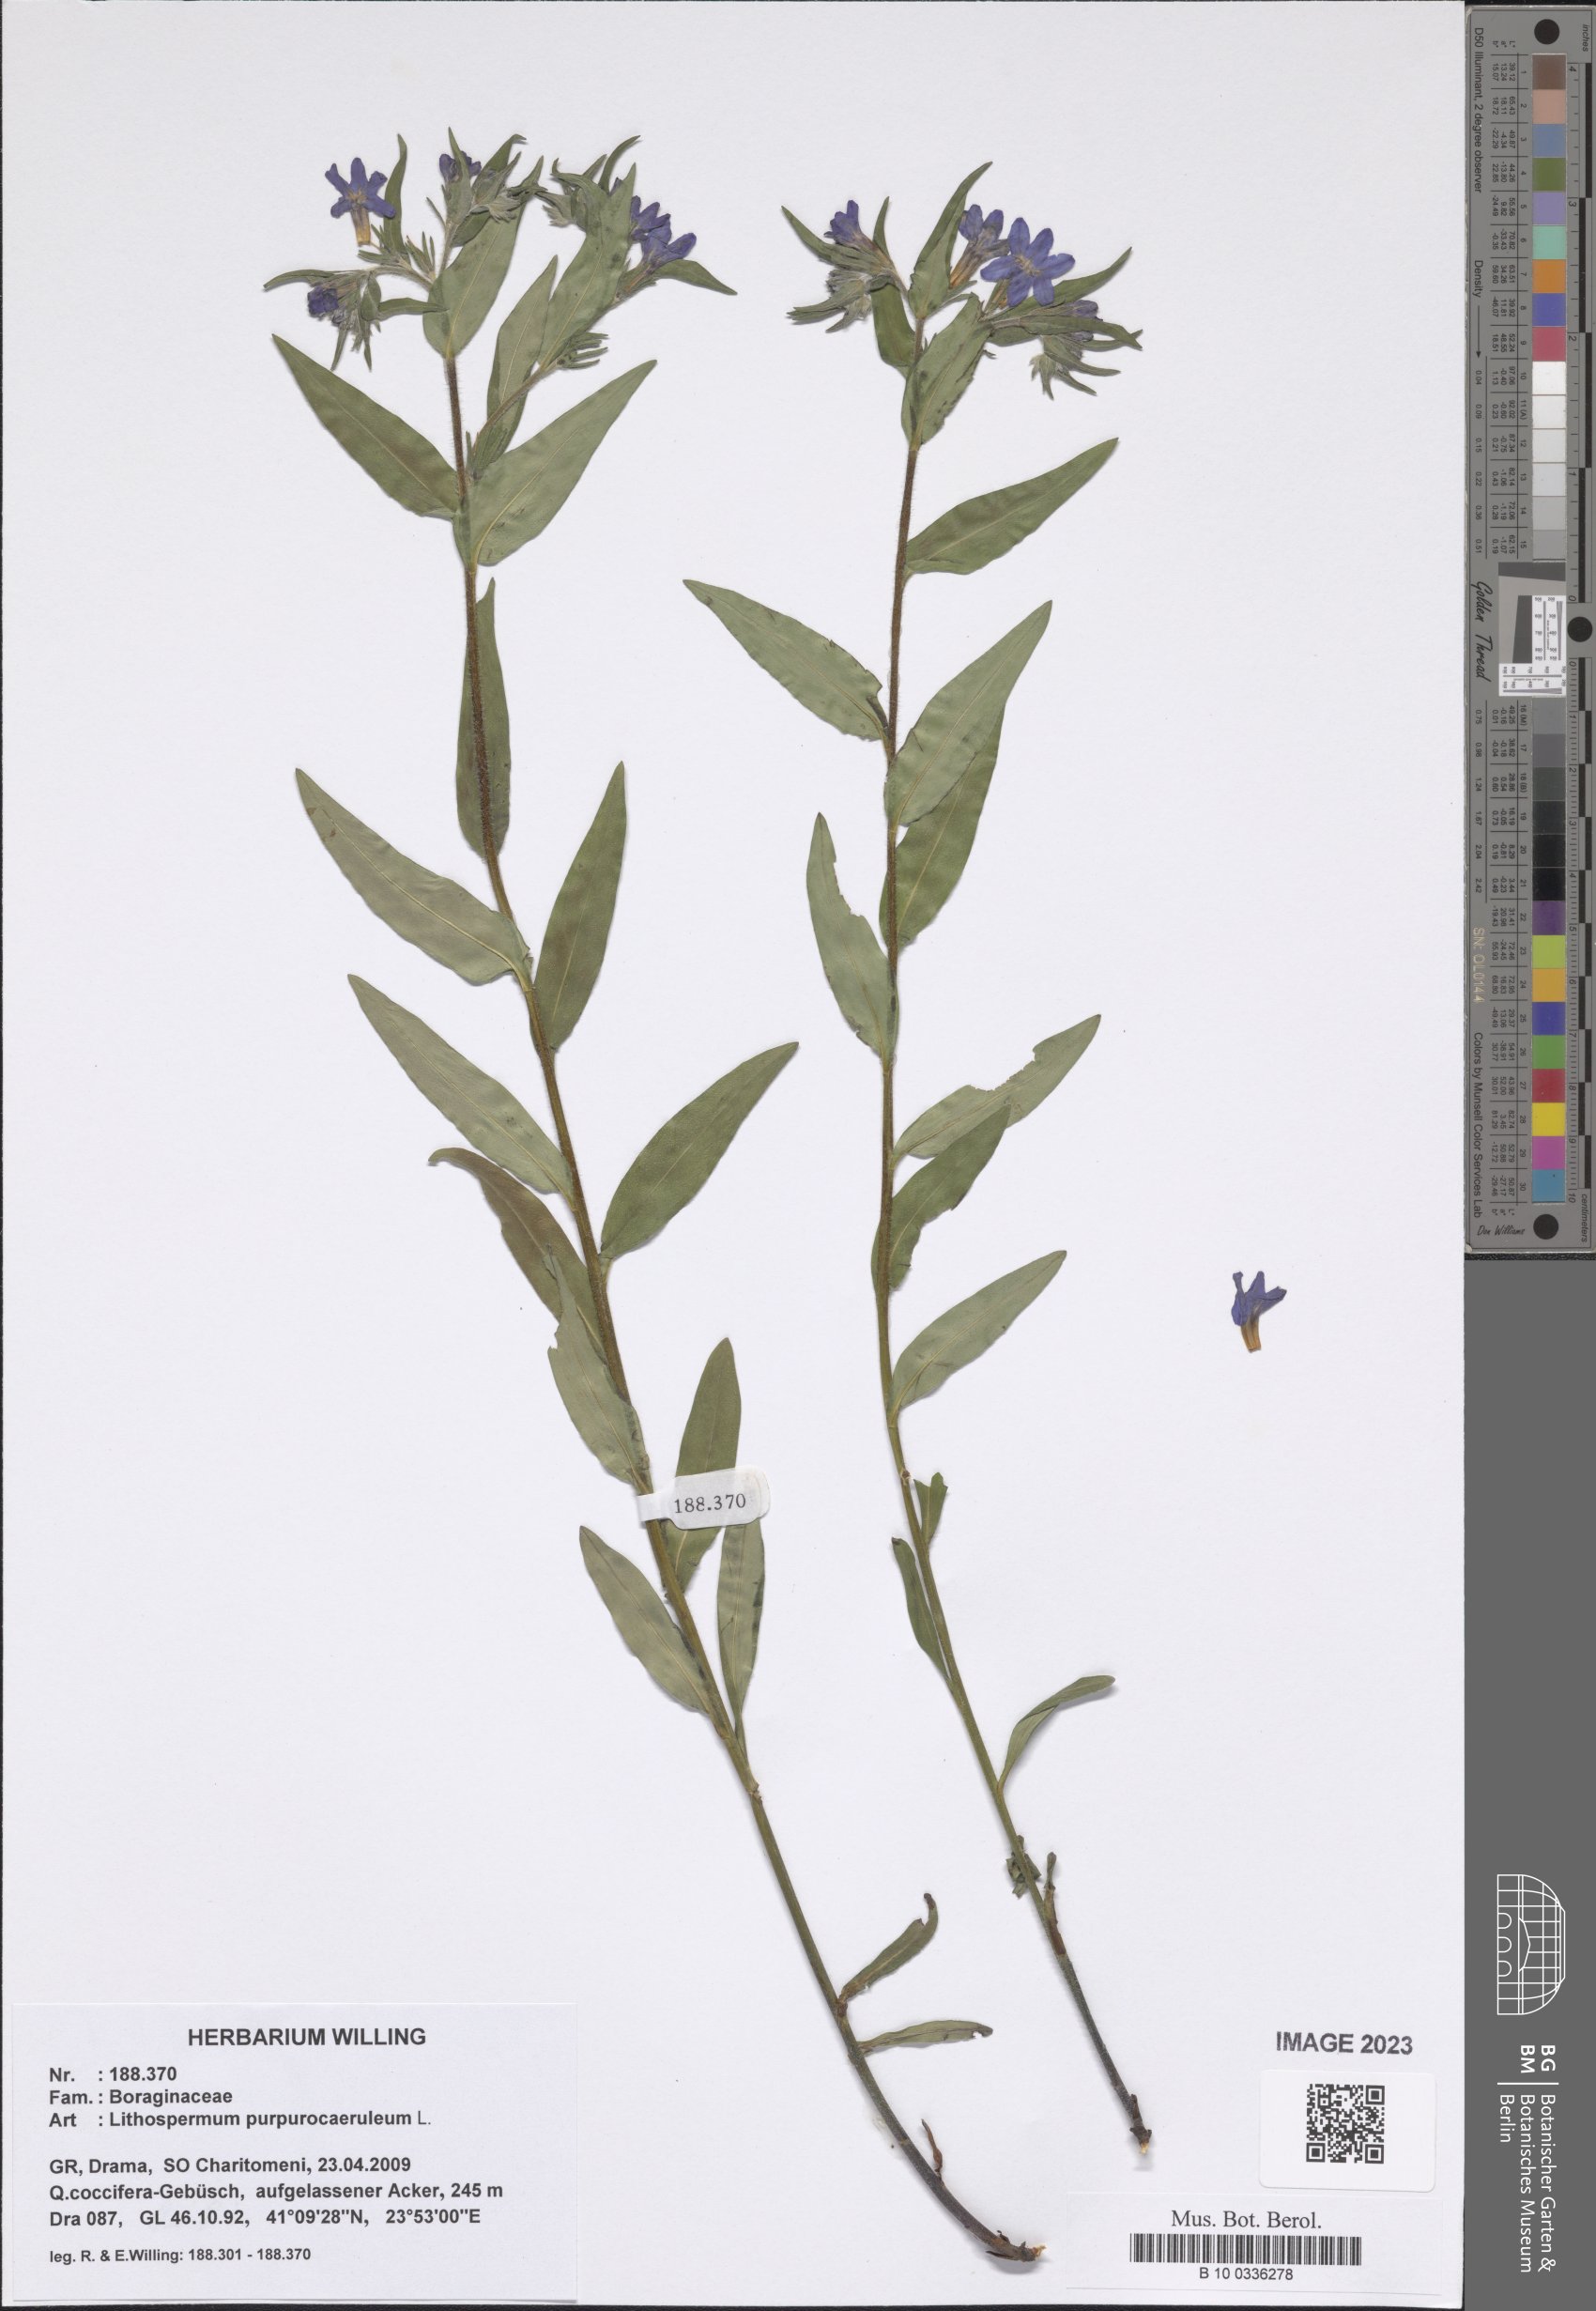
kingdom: Plantae
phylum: Tracheophyta
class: Magnoliopsida
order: Boraginales
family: Boraginaceae
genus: Aegonychon
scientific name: Aegonychon purpurocaeruleum
